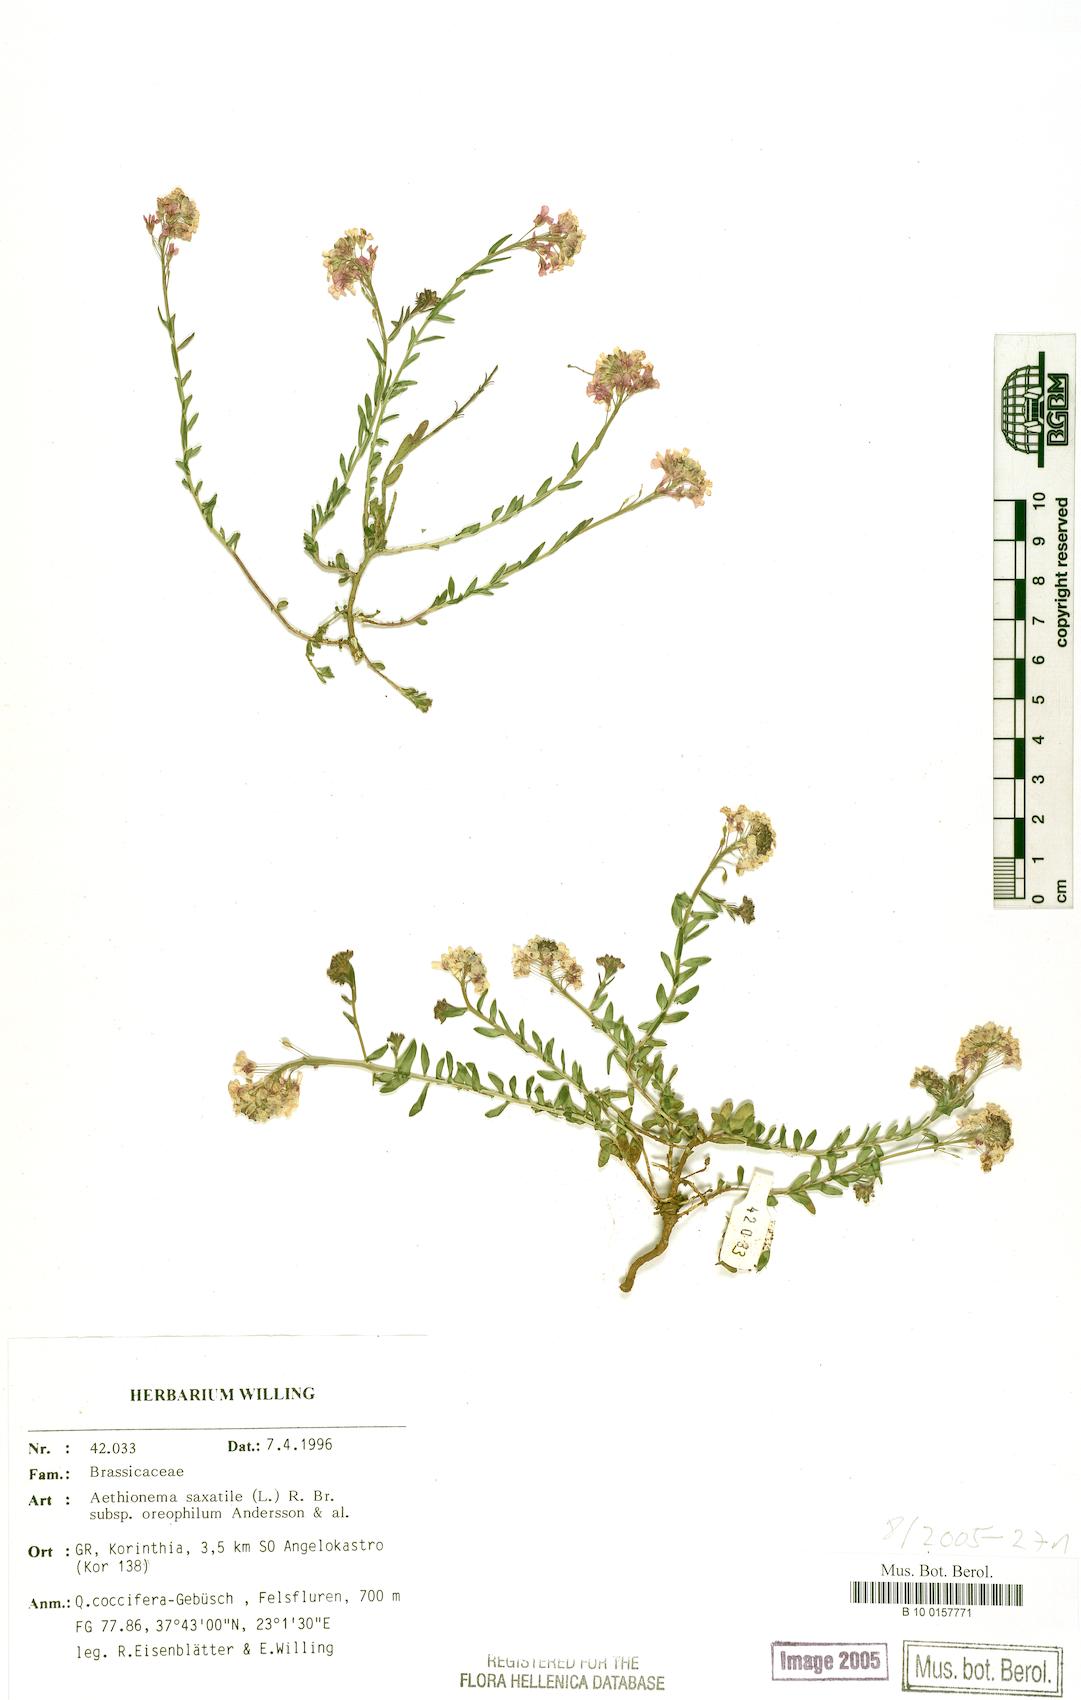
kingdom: Plantae
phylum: Tracheophyta
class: Magnoliopsida
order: Brassicales
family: Brassicaceae
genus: Aethionema
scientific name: Aethionema saxatile
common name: Burnt candytuft
